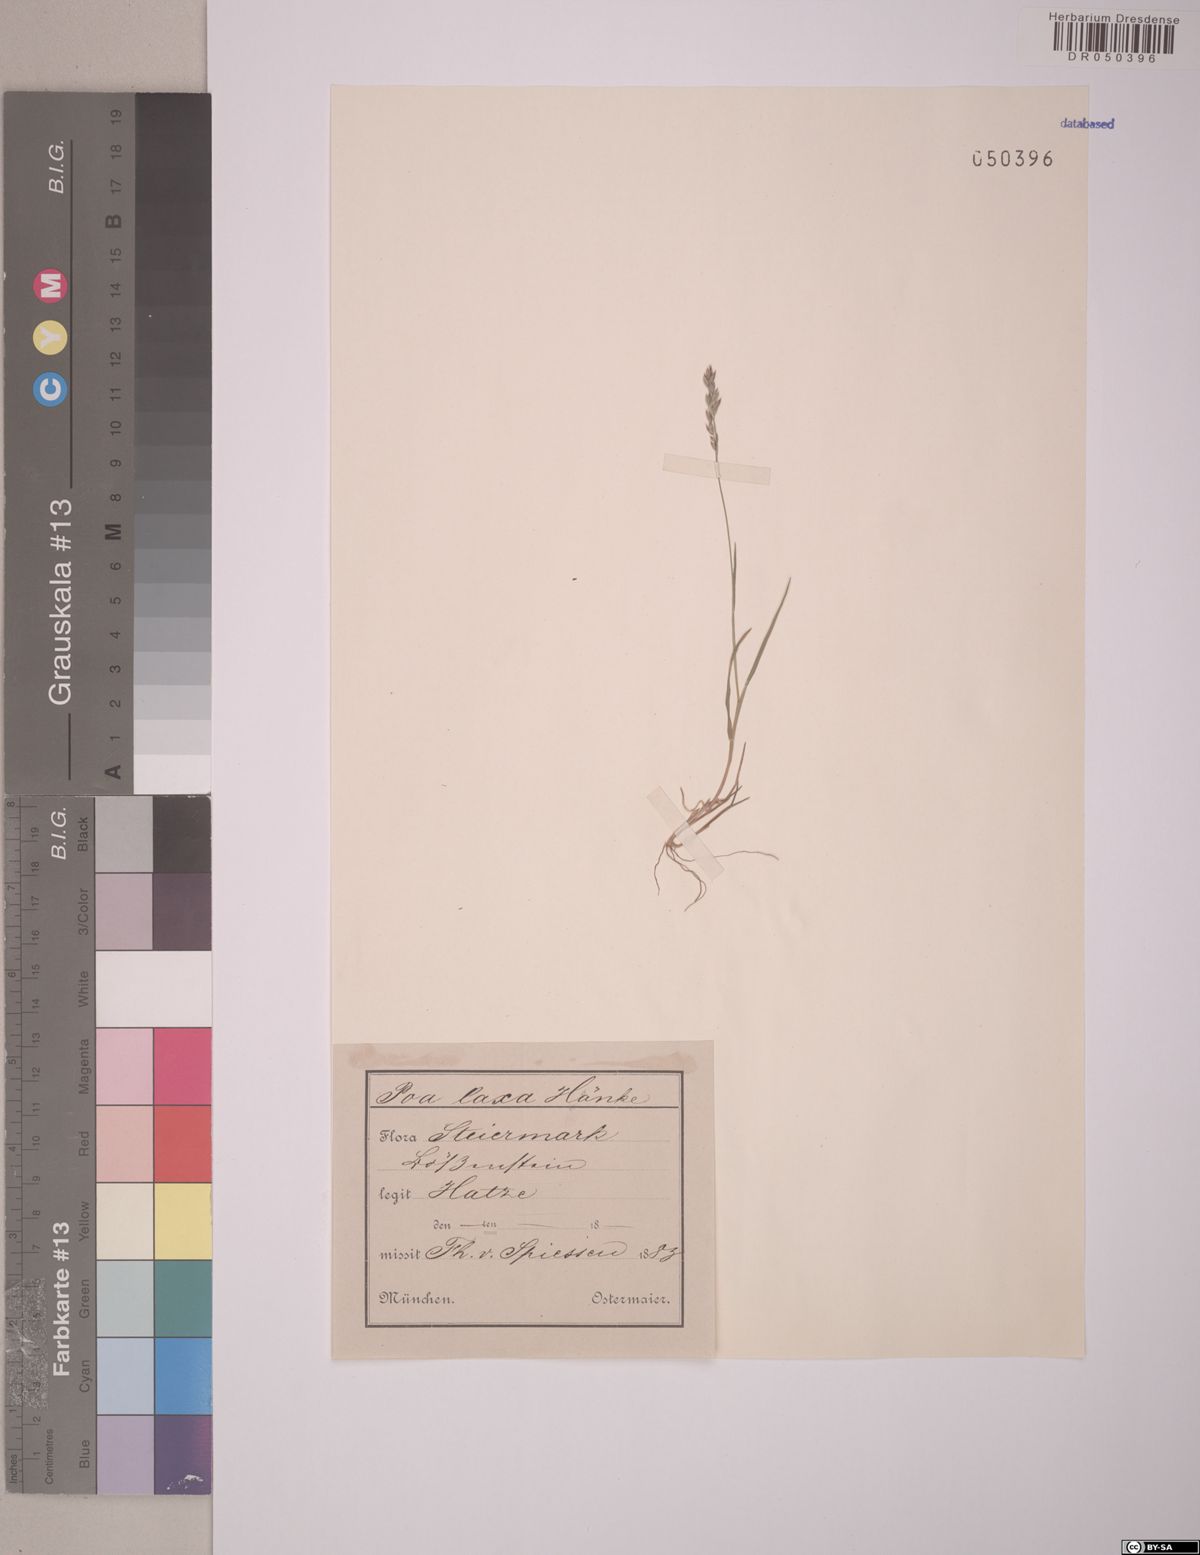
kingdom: Plantae
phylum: Tracheophyta
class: Liliopsida
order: Poales
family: Poaceae
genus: Poa
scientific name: Poa laxa
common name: Lax bluegrass
